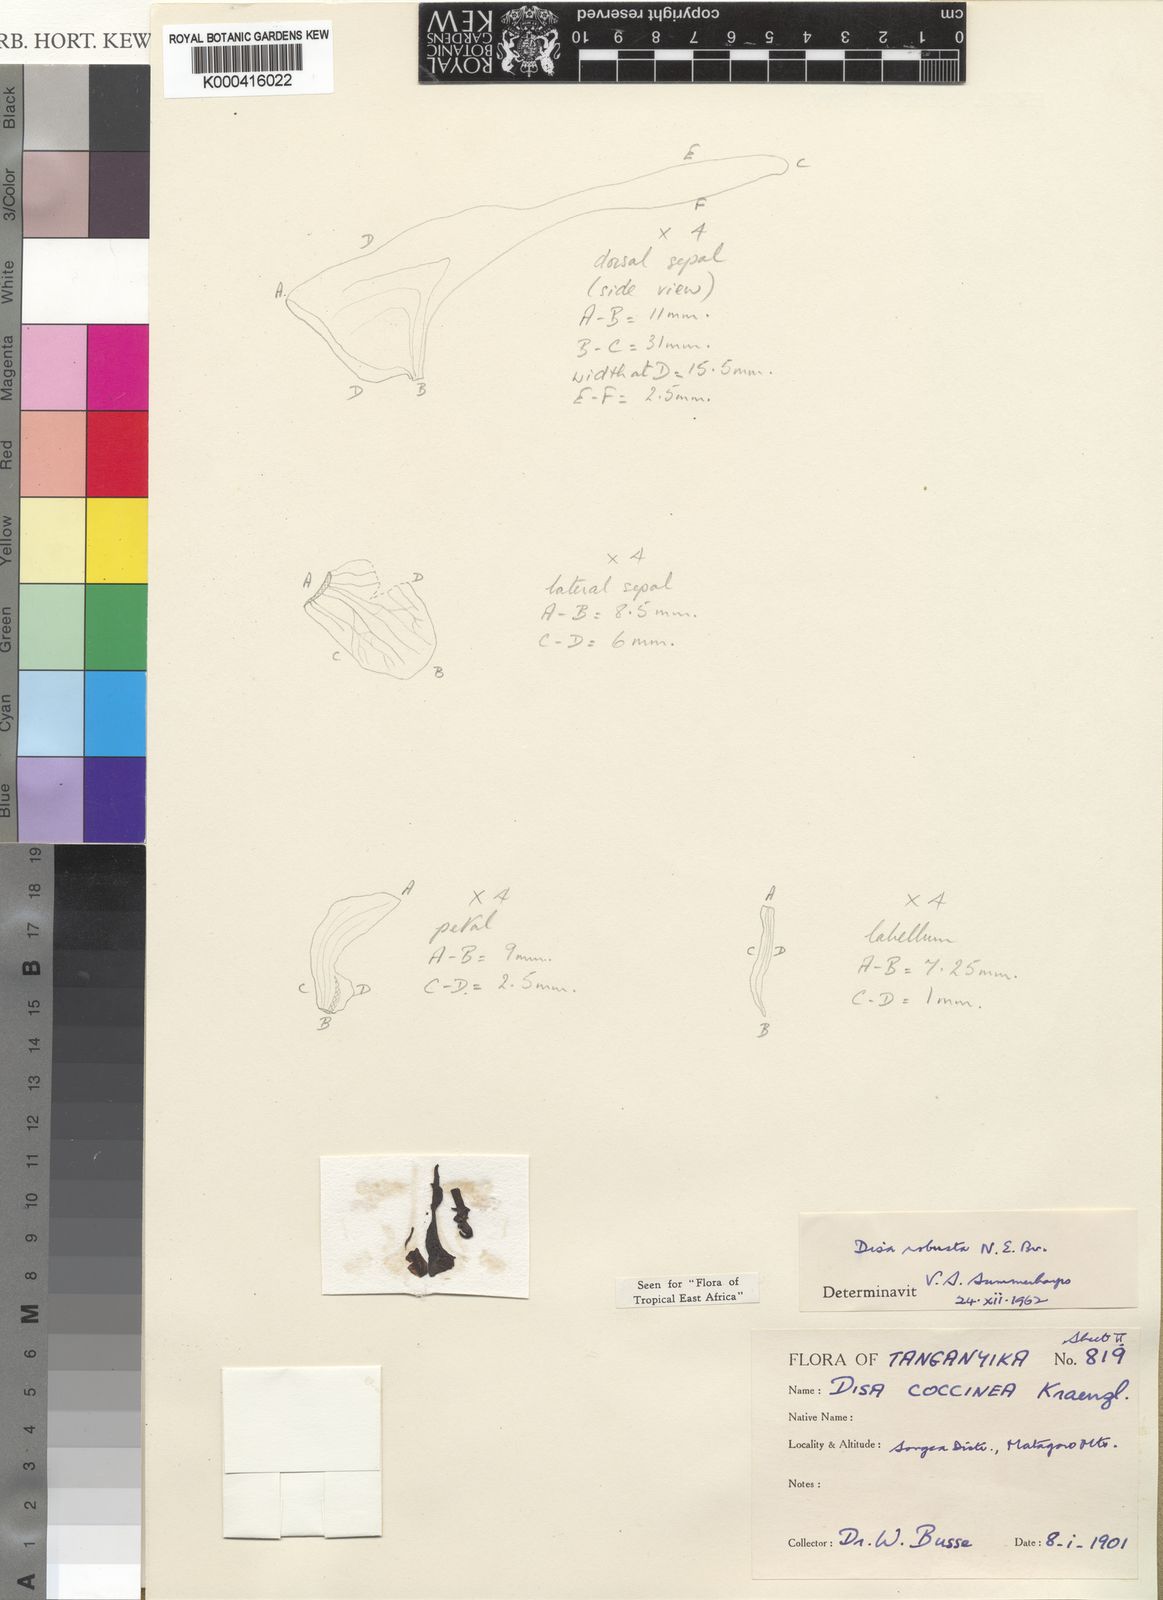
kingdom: Plantae
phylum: Tracheophyta
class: Liliopsida
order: Asparagales
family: Orchidaceae
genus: Disa
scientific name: Disa robusta
